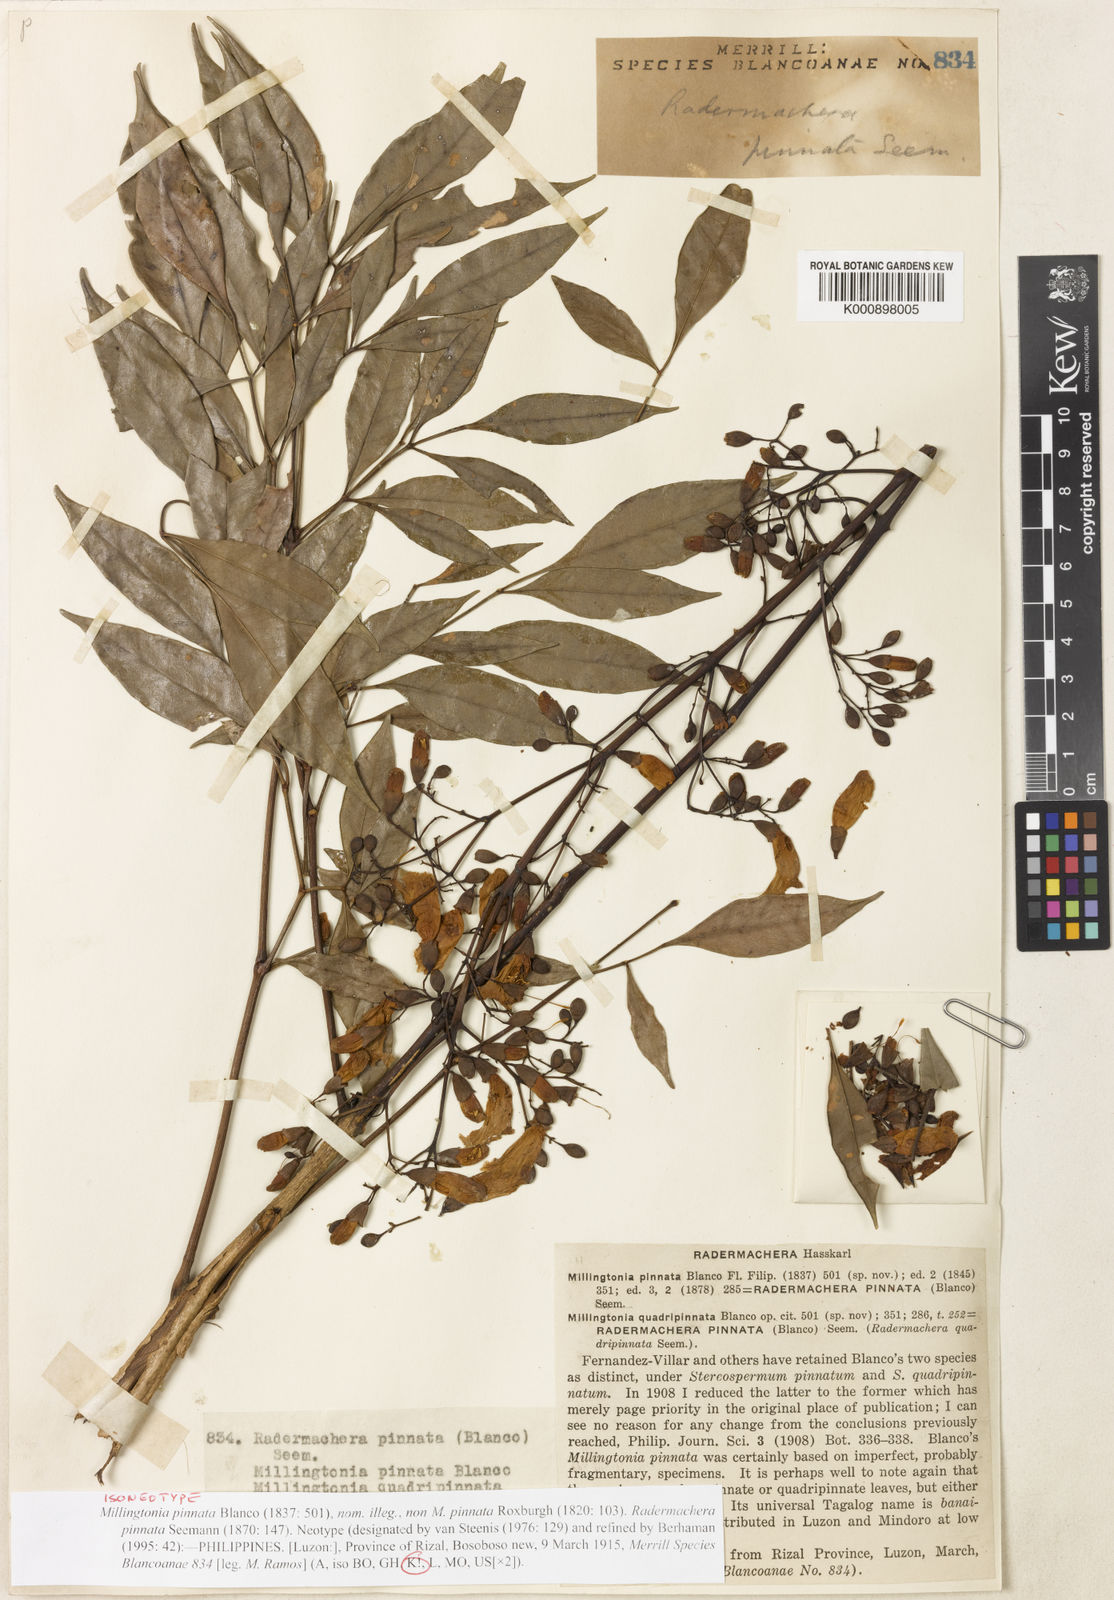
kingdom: Plantae
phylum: Tracheophyta
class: Magnoliopsida
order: Lamiales
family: Bignoniaceae
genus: Radermachera
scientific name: Radermachera pinnata
